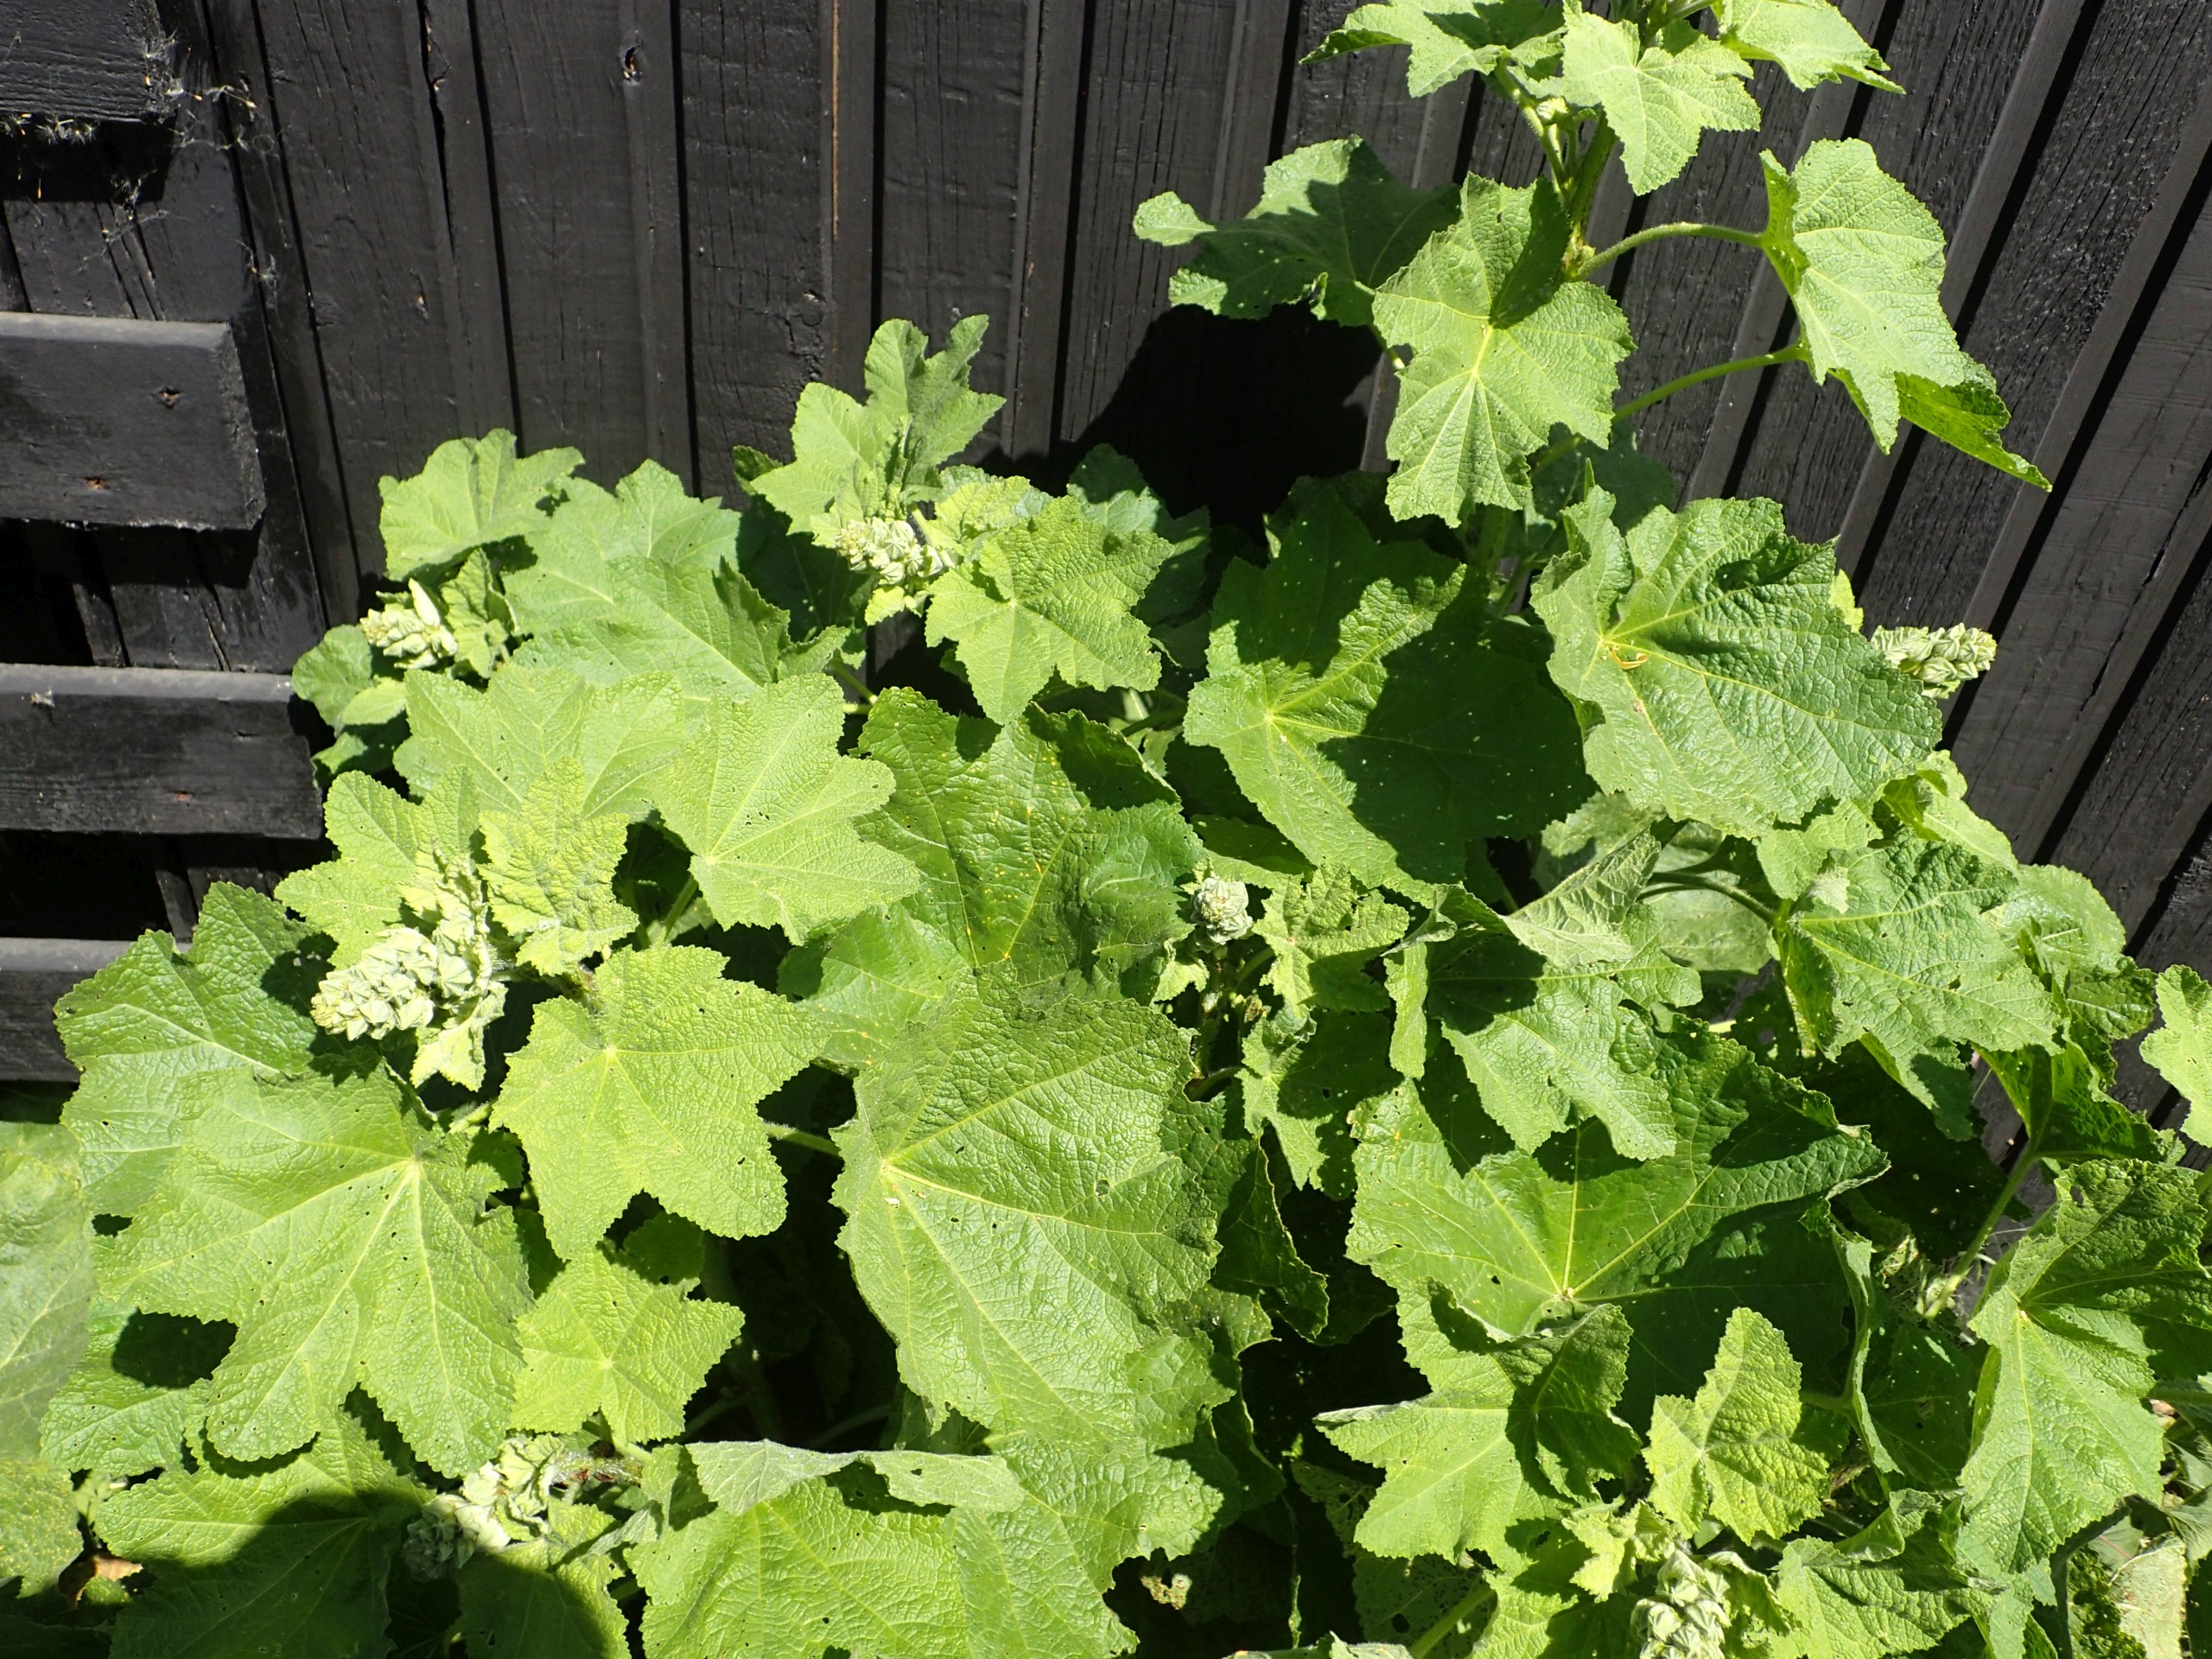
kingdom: Plantae
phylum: Tracheophyta
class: Magnoliopsida
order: Malvales
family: Malvaceae
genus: Alcea
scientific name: Alcea rosea
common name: Have-stokrose
